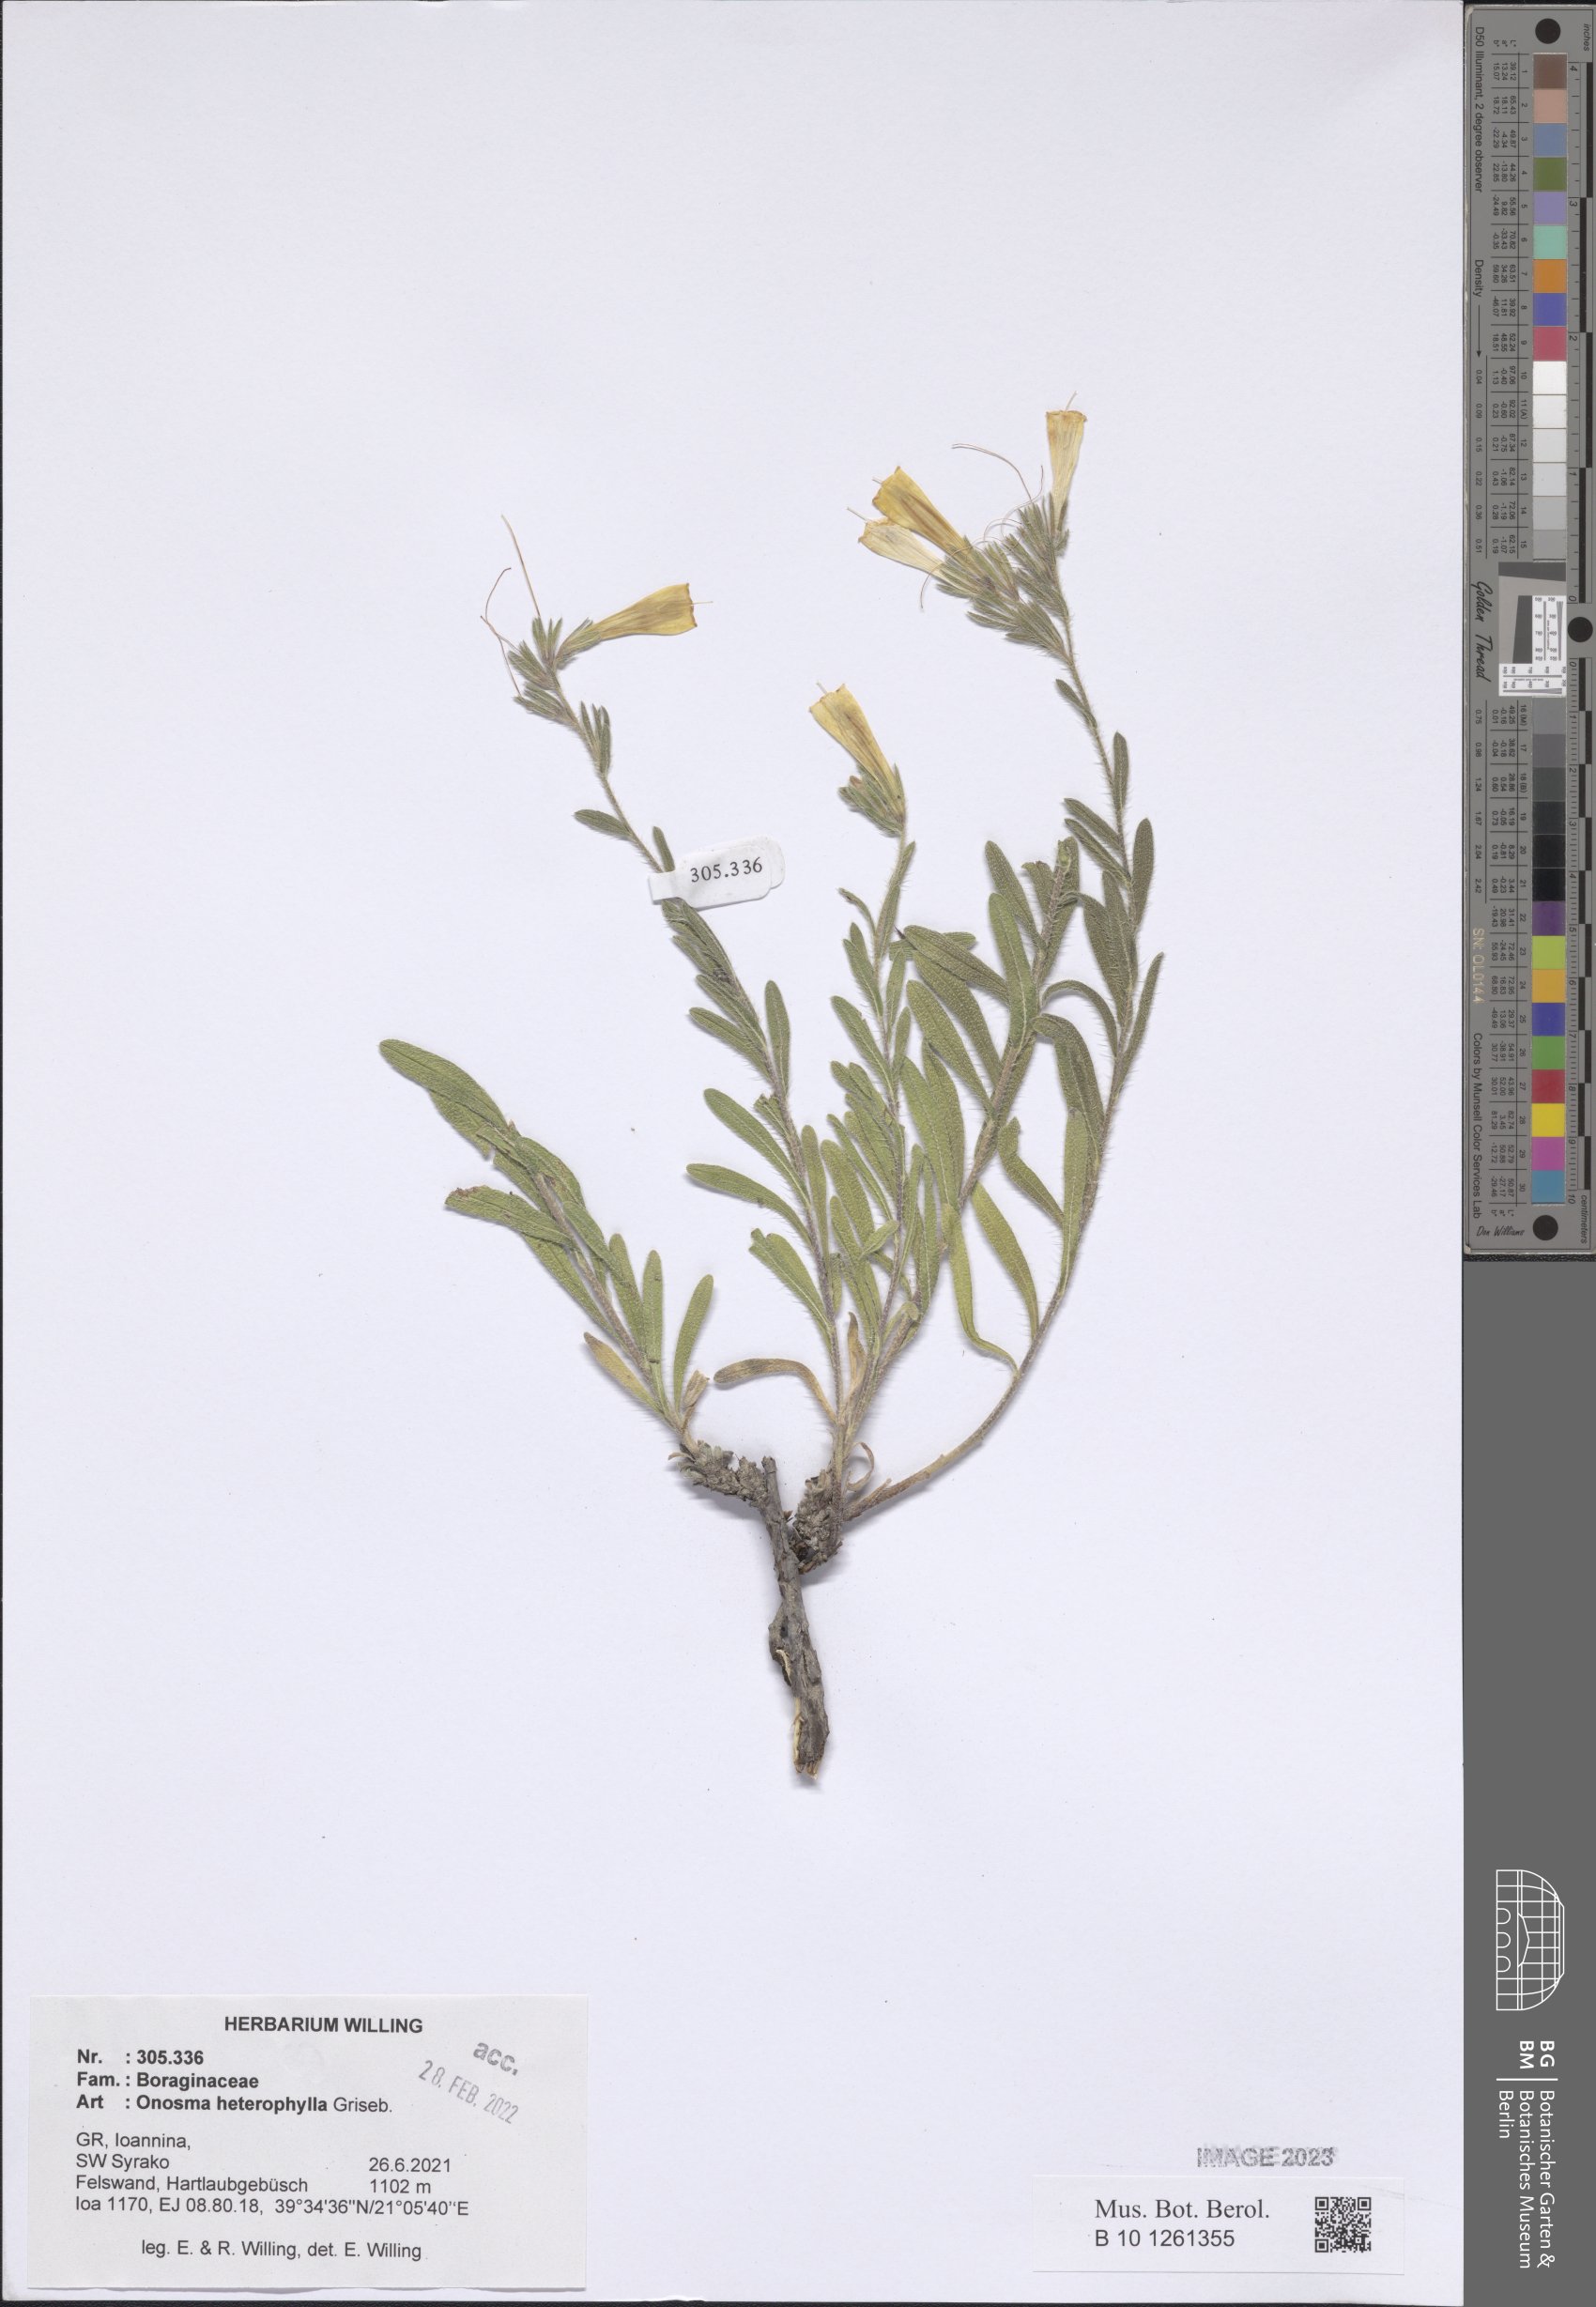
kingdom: Plantae
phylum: Tracheophyta
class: Magnoliopsida
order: Boraginales
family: Boraginaceae
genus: Onosma
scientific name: Onosma heterophylla
